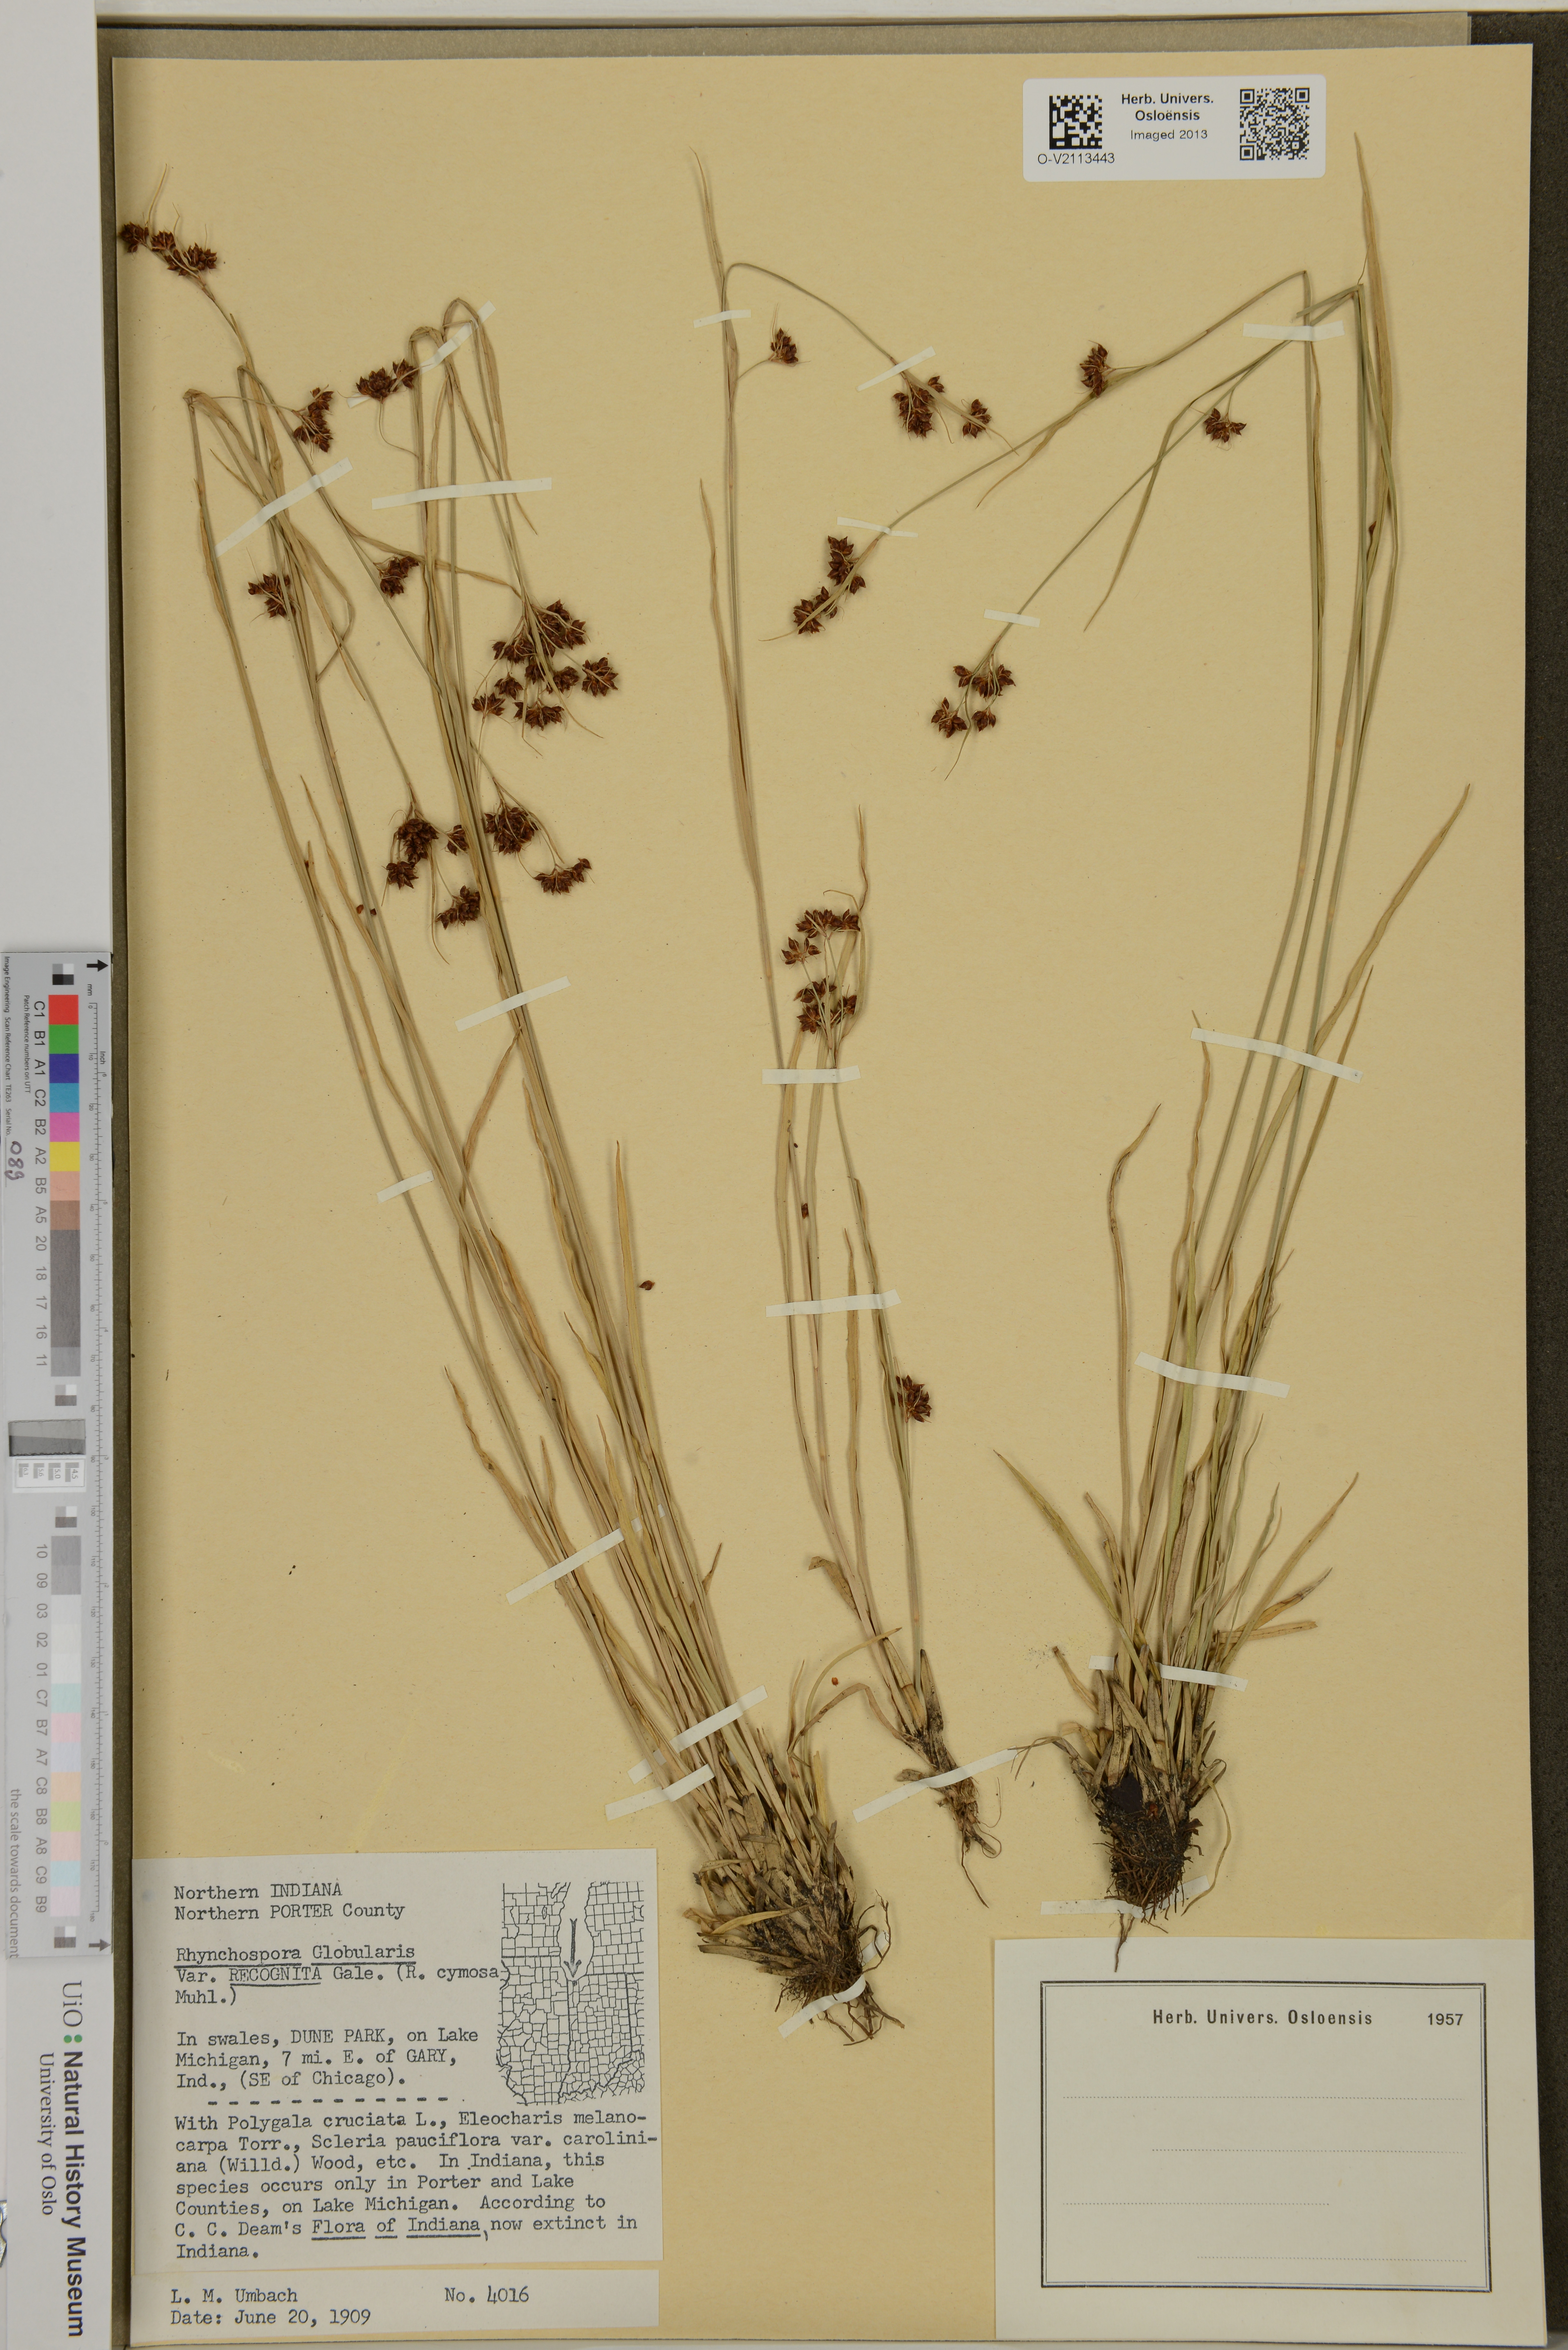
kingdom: Plantae
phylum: Tracheophyta
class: Liliopsida
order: Poales
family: Cyperaceae
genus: Rhynchospora
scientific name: Rhynchospora globularis
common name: Globe beaksedge
